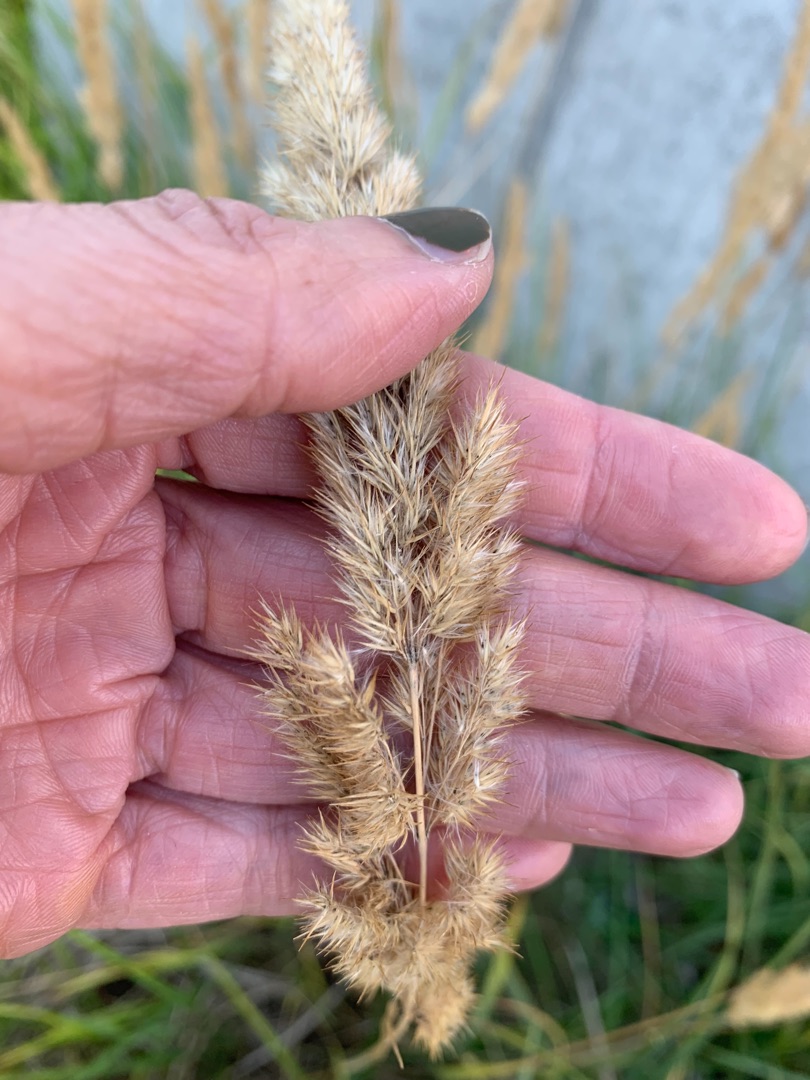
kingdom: Plantae
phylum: Tracheophyta
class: Liliopsida
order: Poales
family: Poaceae
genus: Calamagrostis
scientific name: Calamagrostis epigejos
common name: Bjerg-rørhvene
